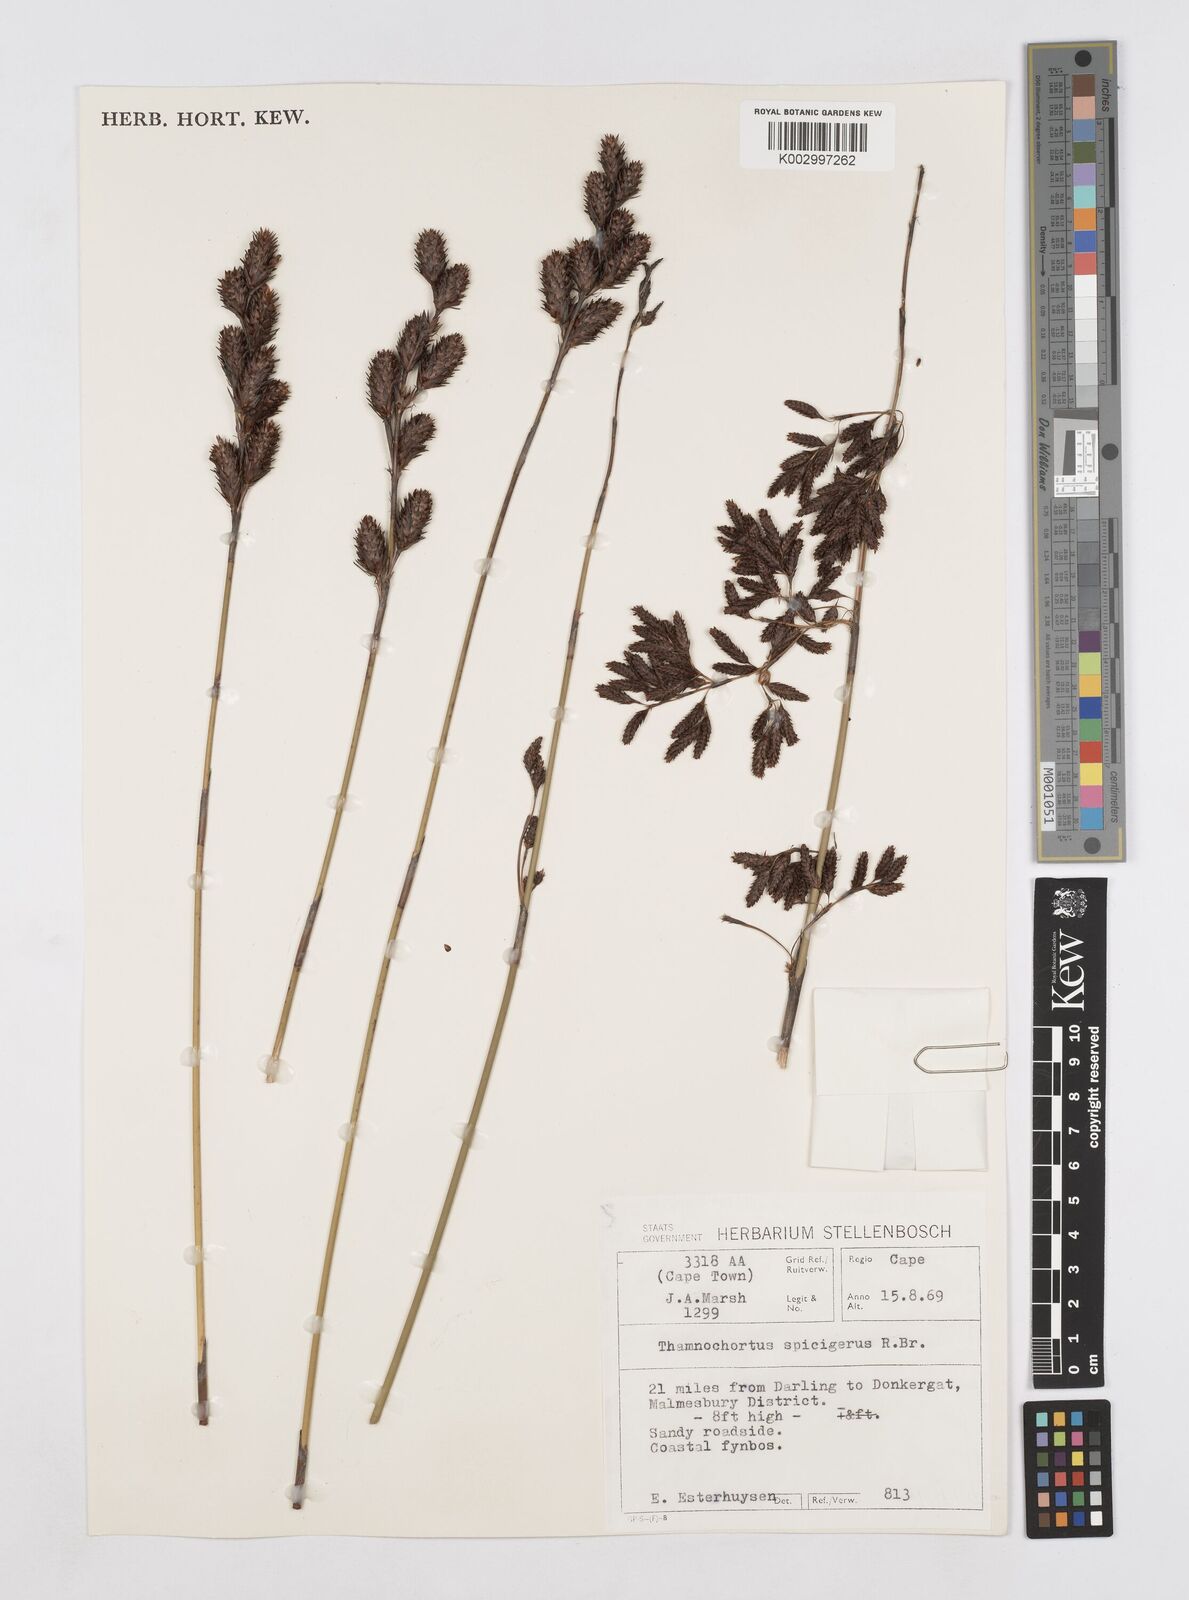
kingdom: Plantae
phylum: Tracheophyta
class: Liliopsida
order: Poales
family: Restionaceae
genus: Thamnochortus
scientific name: Thamnochortus spicigerus
